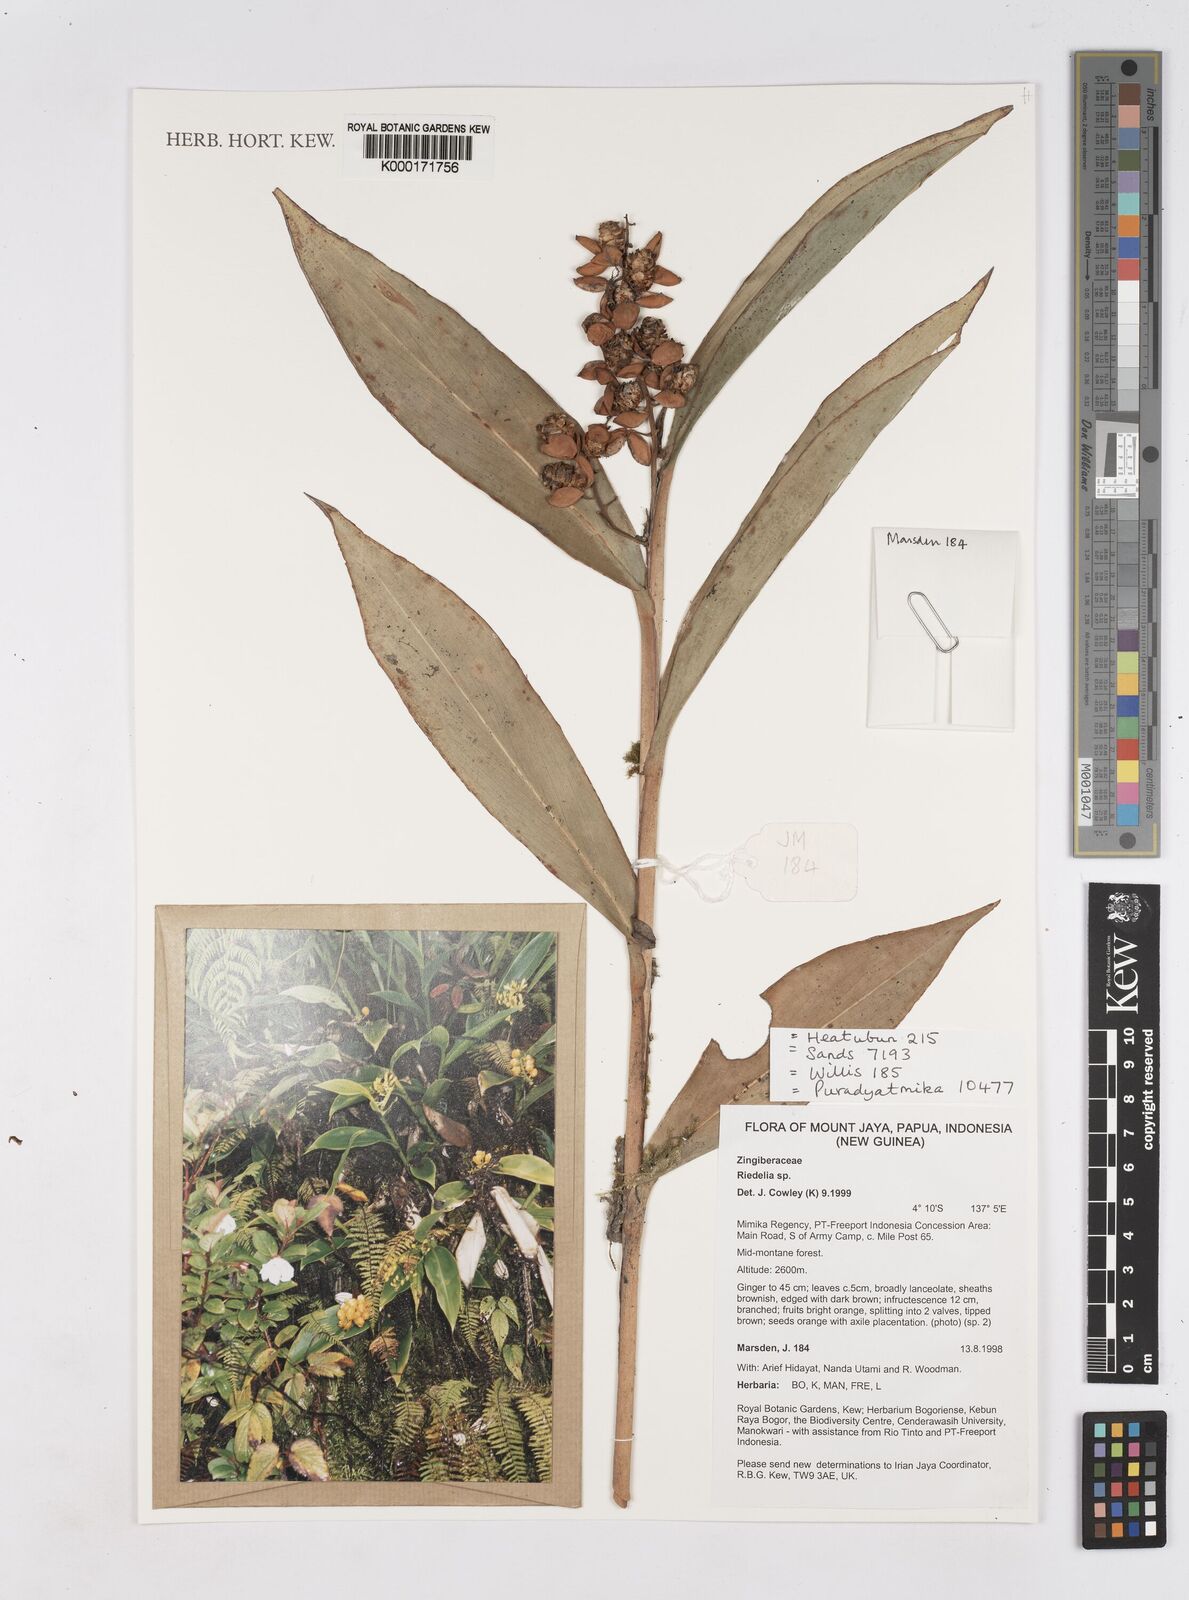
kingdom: Plantae
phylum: Tracheophyta
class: Liliopsida
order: Zingiberales
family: Zingiberaceae
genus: Riedelia
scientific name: Riedelia
